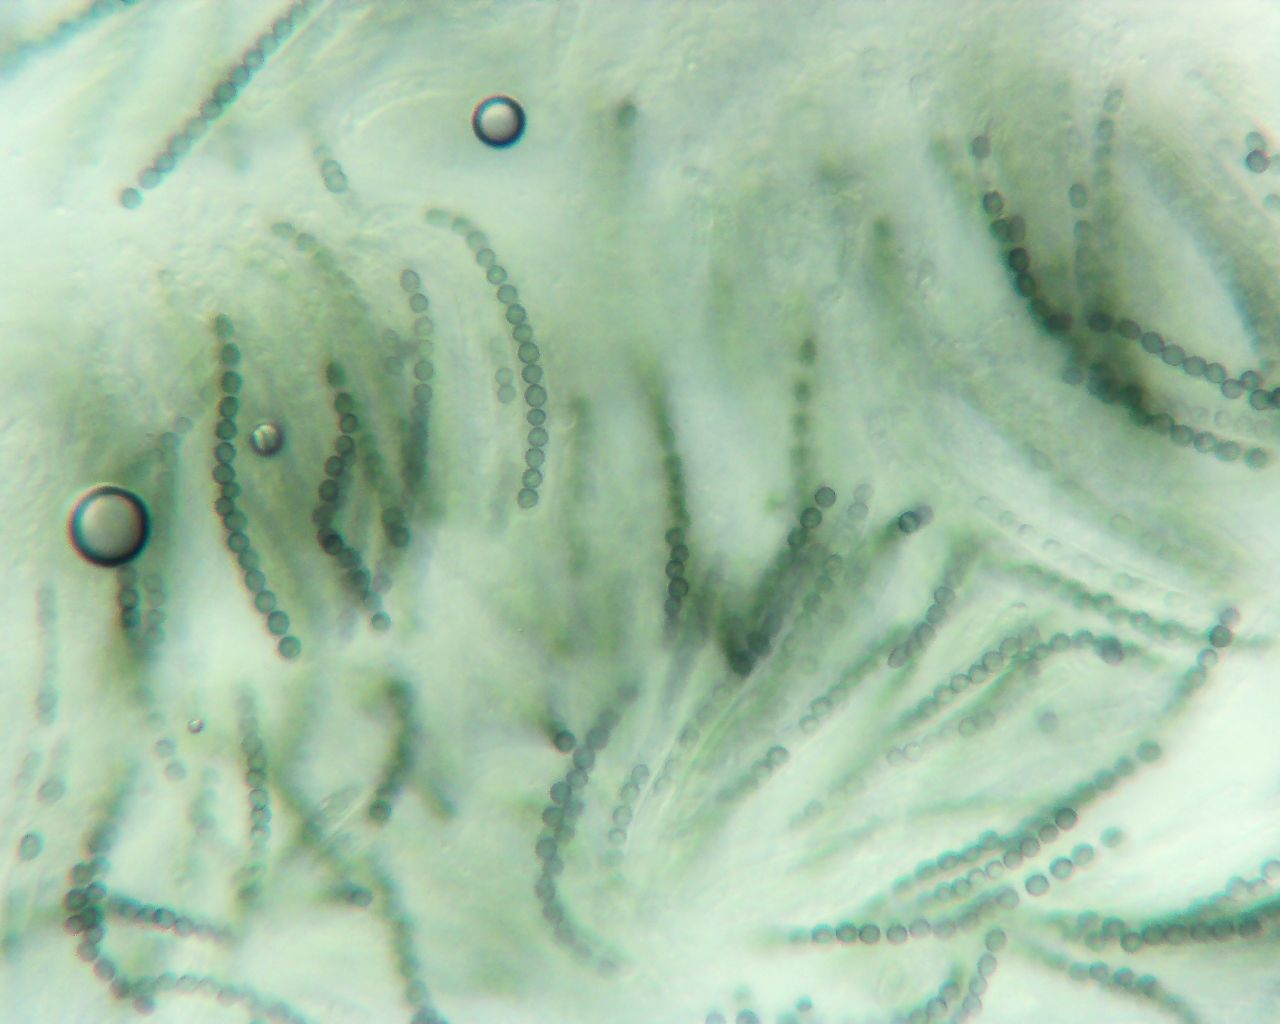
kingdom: Fungi
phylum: Ascomycota
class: Sordariomycetes
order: Hypocreales
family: Hypocreaceae
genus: Trichoderma
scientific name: Trichoderma aureoviride
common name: æggegul kødkerne
